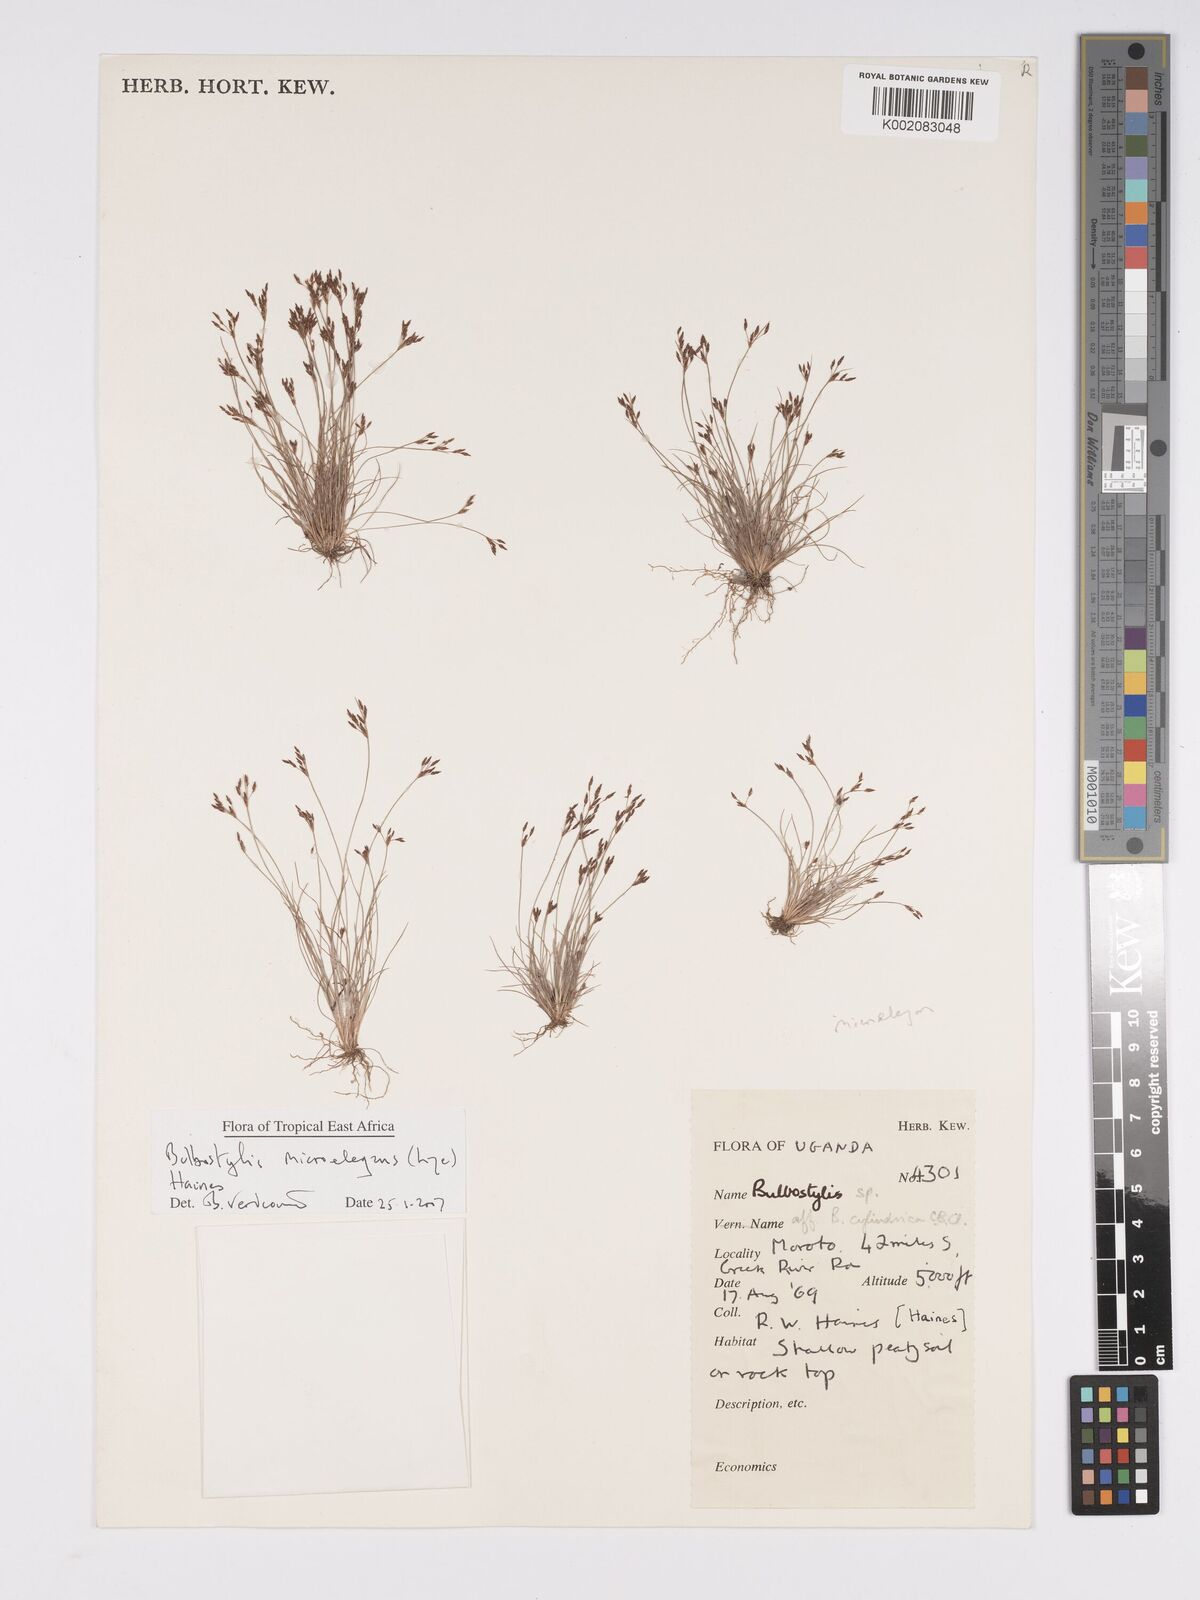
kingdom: Plantae
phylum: Tracheophyta
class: Liliopsida
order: Poales
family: Cyperaceae
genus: Bulbostylis
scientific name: Bulbostylis microelegans
